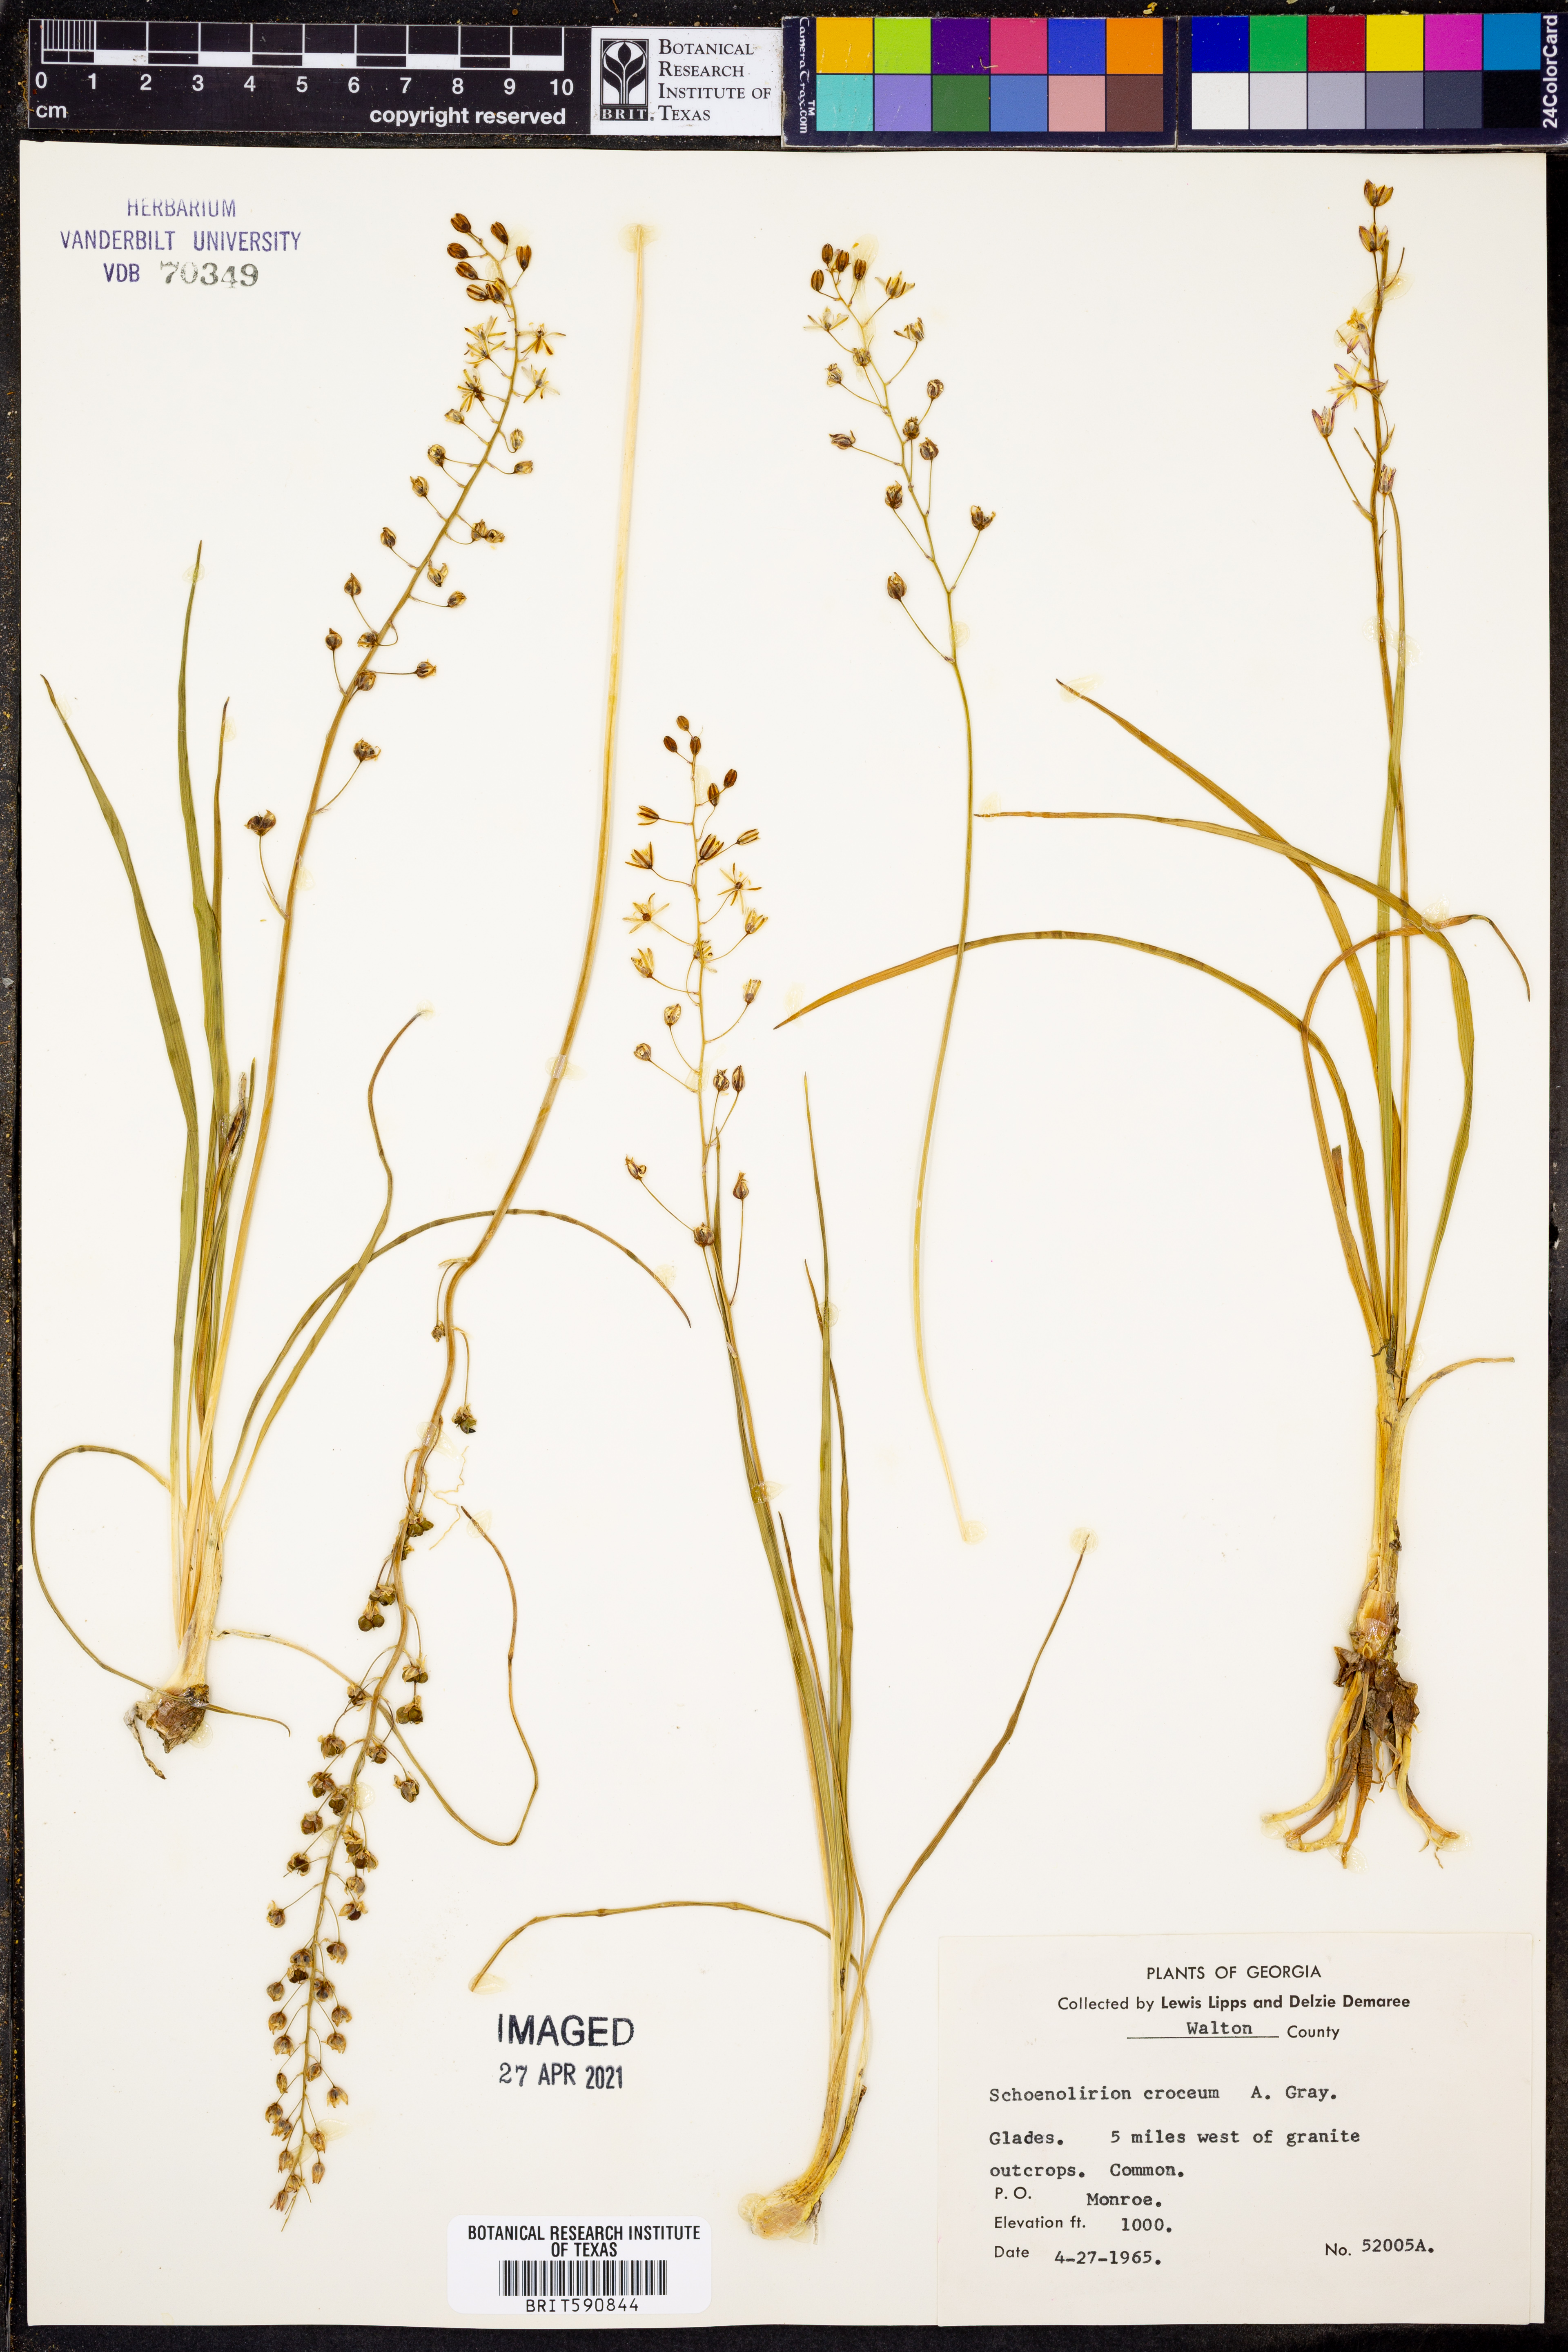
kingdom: Plantae
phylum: Tracheophyta
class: Liliopsida
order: Asparagales
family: Asparagaceae
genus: Schoenolirion
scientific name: Schoenolirion croceum
